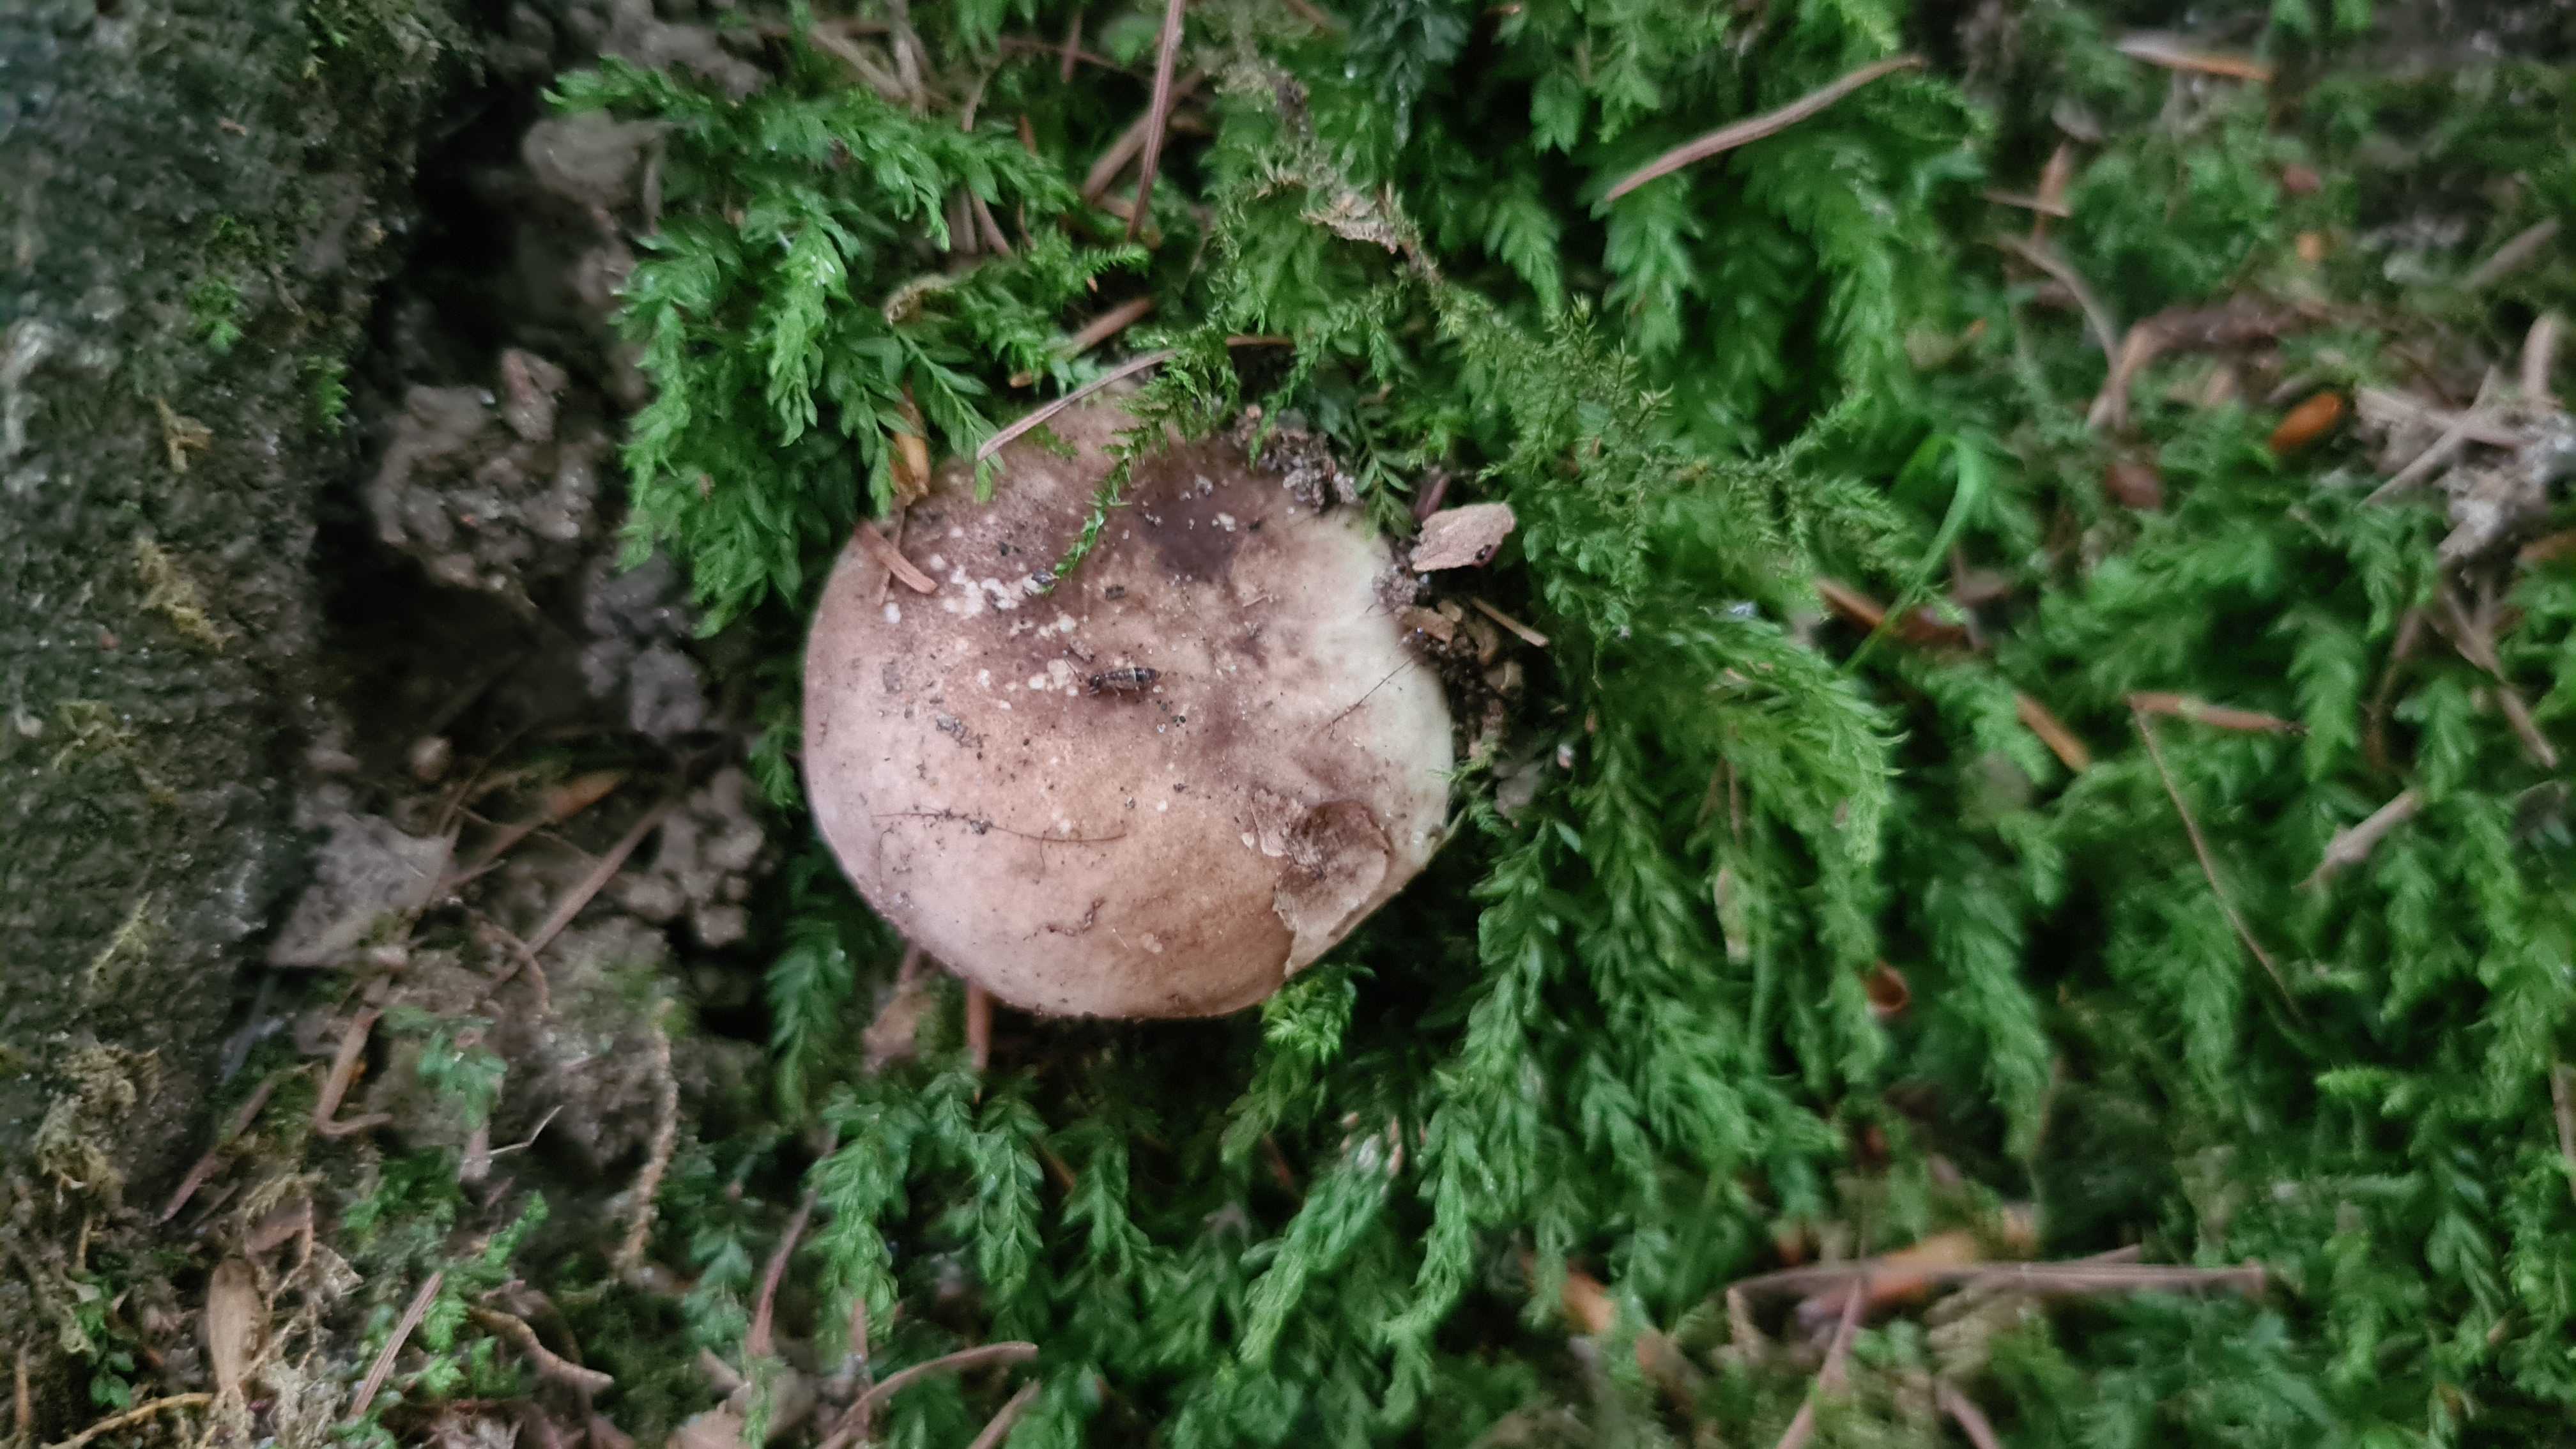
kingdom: Fungi
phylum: Basidiomycota
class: Agaricomycetes
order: Russulales
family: Russulaceae
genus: Russula
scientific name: Russula adusta
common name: sværtende skørhat
